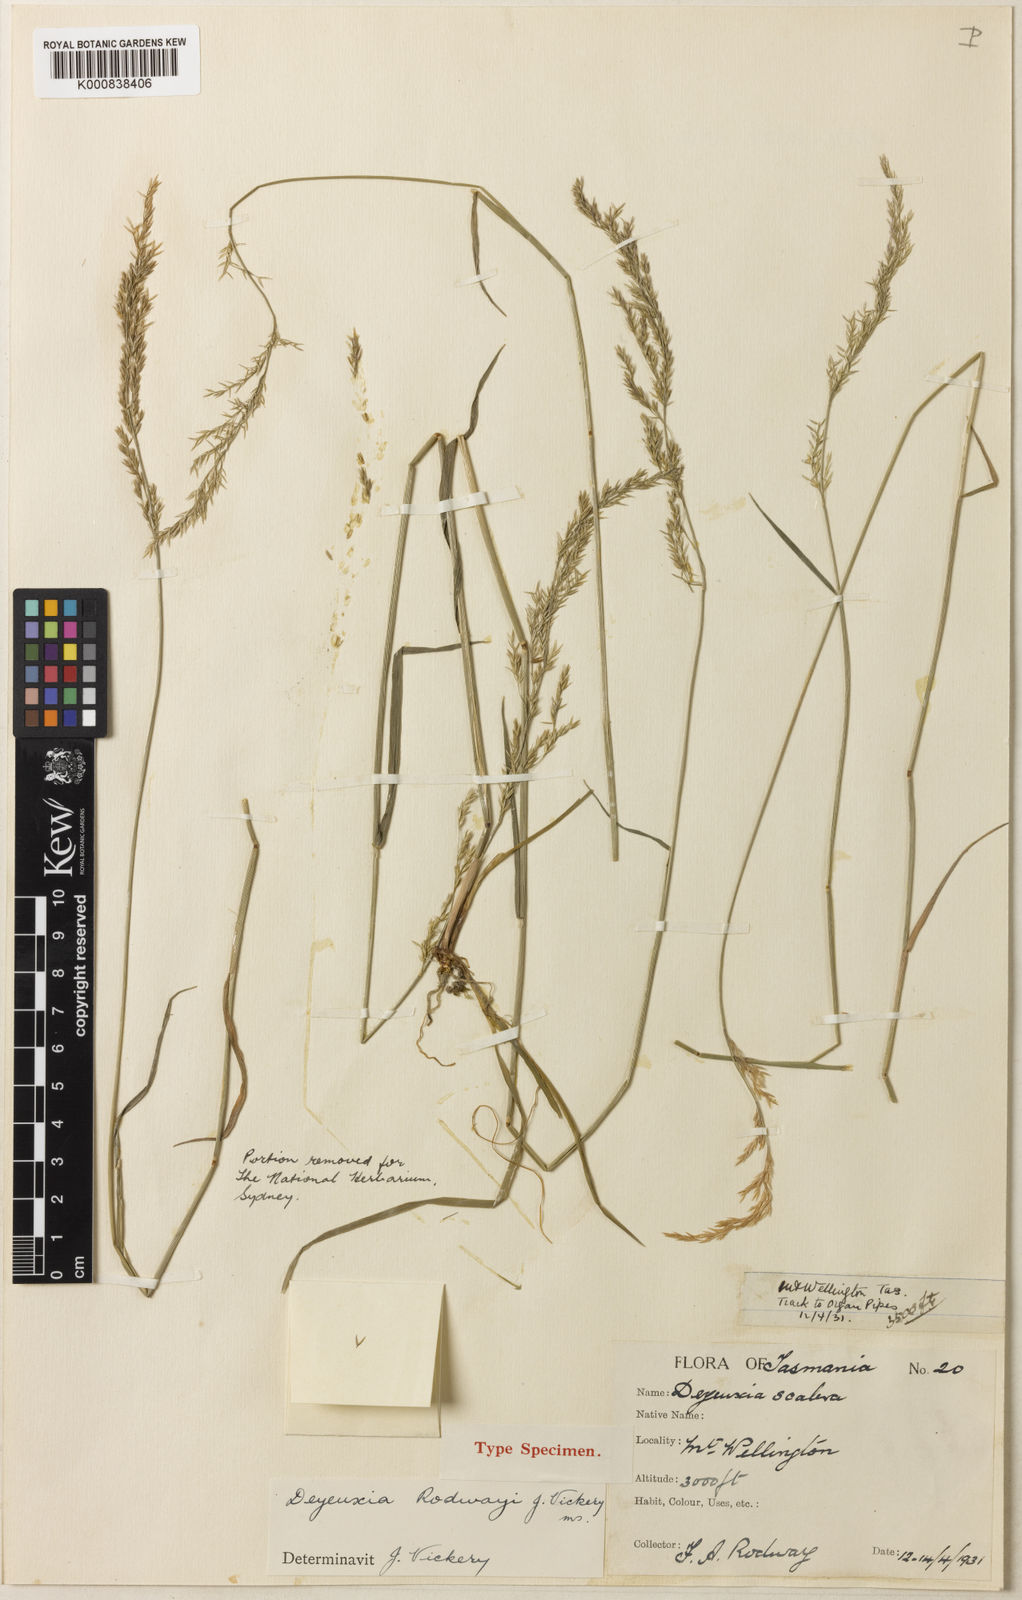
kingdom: Plantae
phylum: Tracheophyta
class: Liliopsida
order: Poales
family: Poaceae
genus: Calamagrostis
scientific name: Calamagrostis rodwayi
